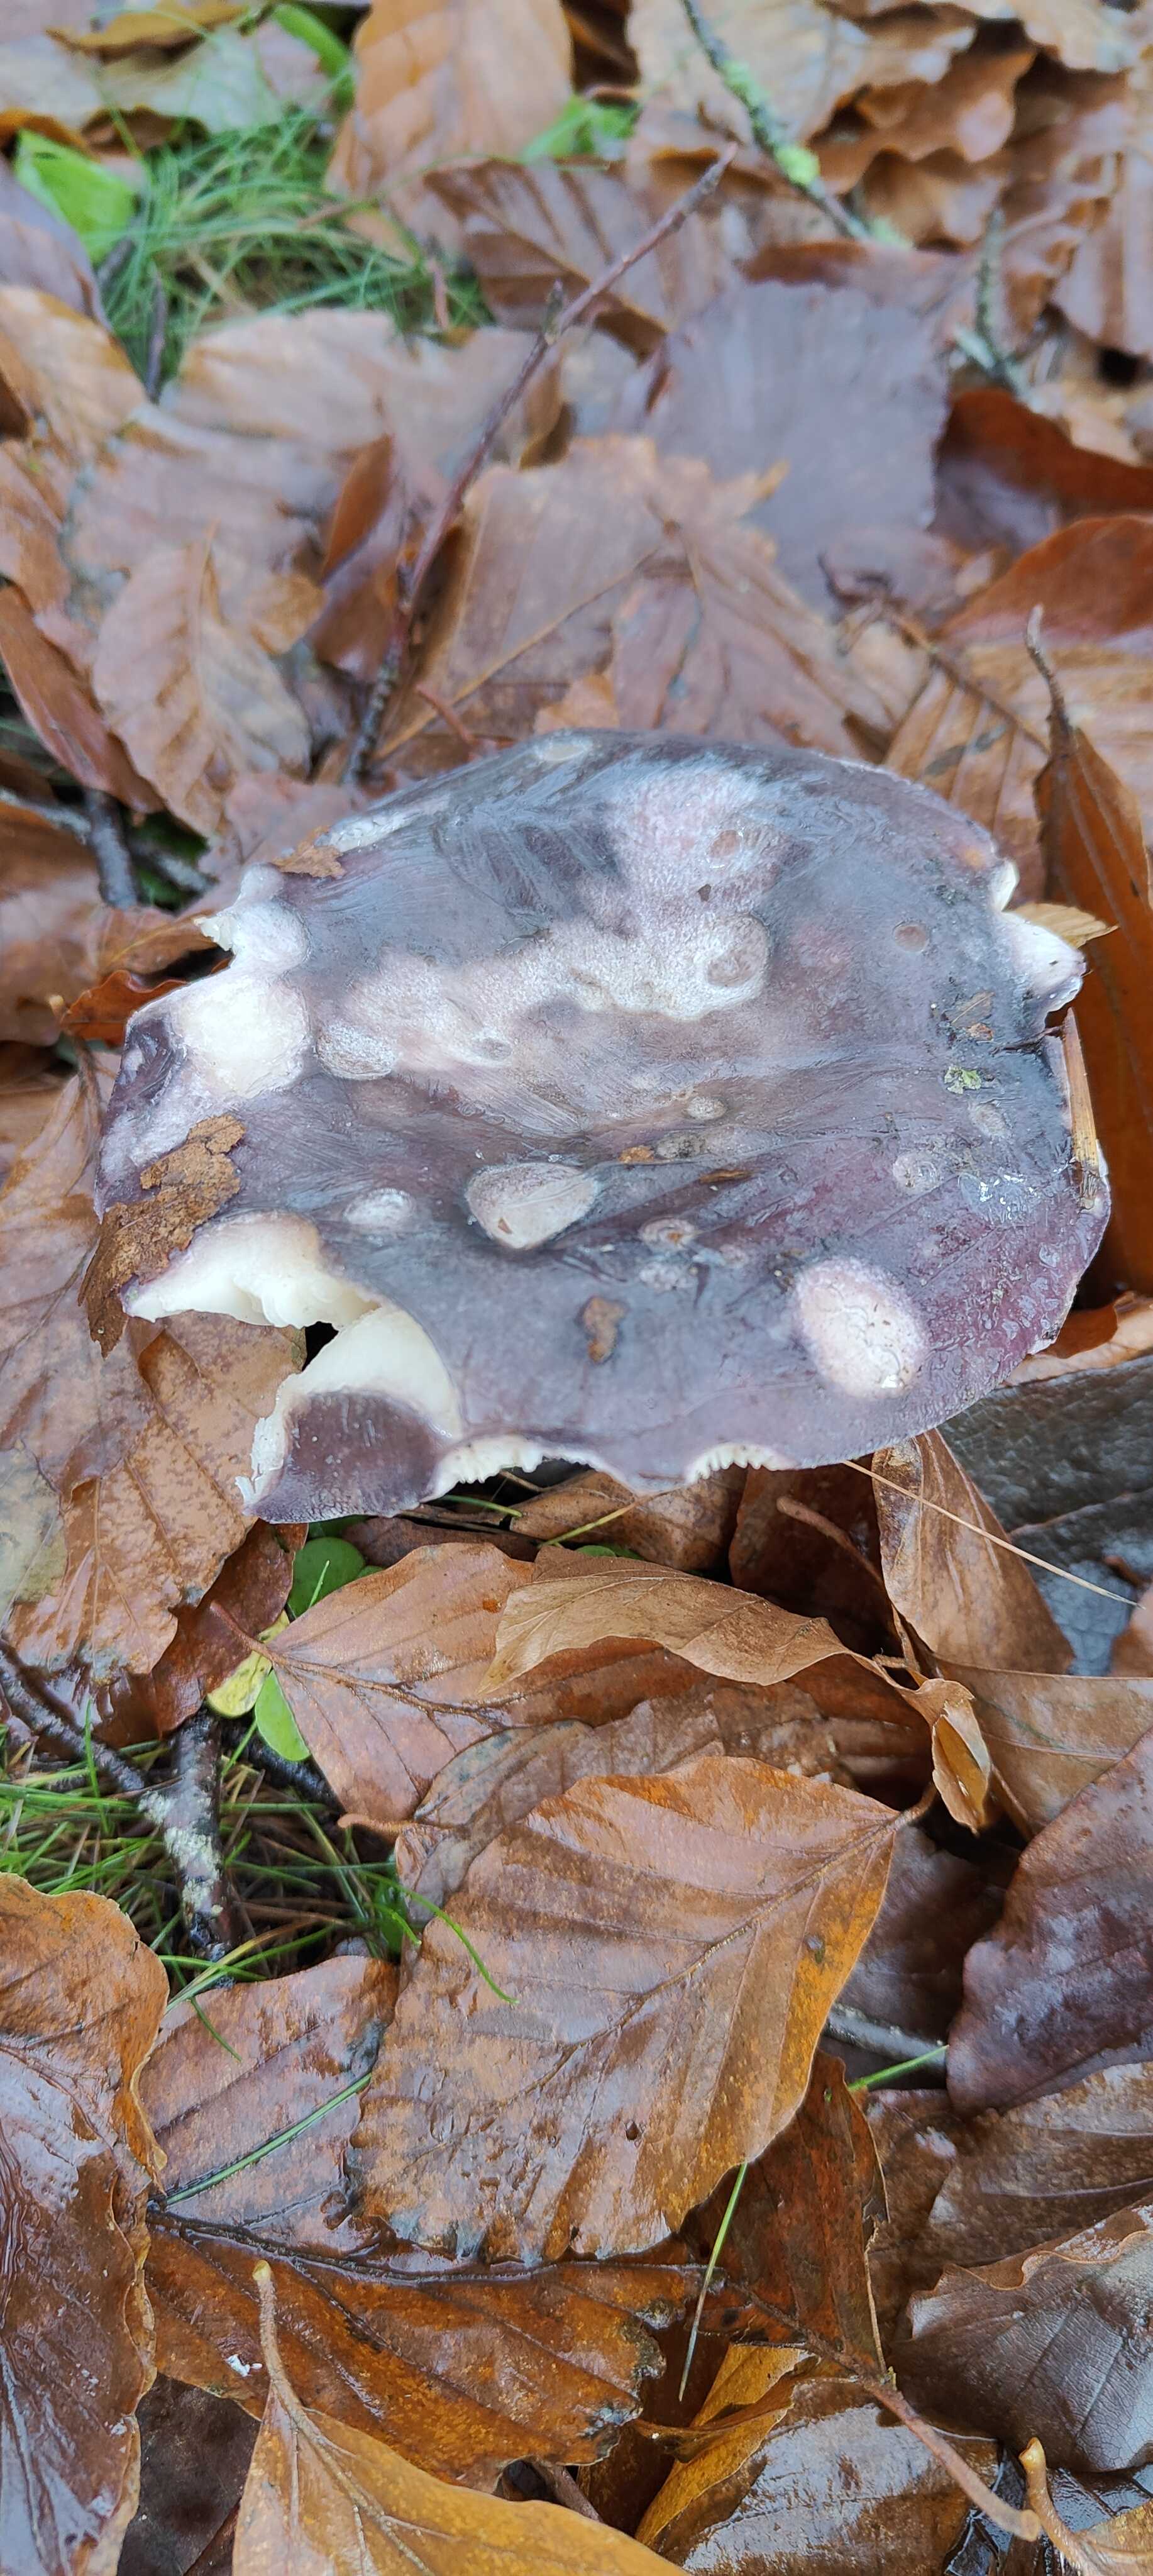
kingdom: Fungi
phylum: Basidiomycota
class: Agaricomycetes
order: Russulales
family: Russulaceae
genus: Russula
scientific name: Russula cyanoxantha
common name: broget skørhat
